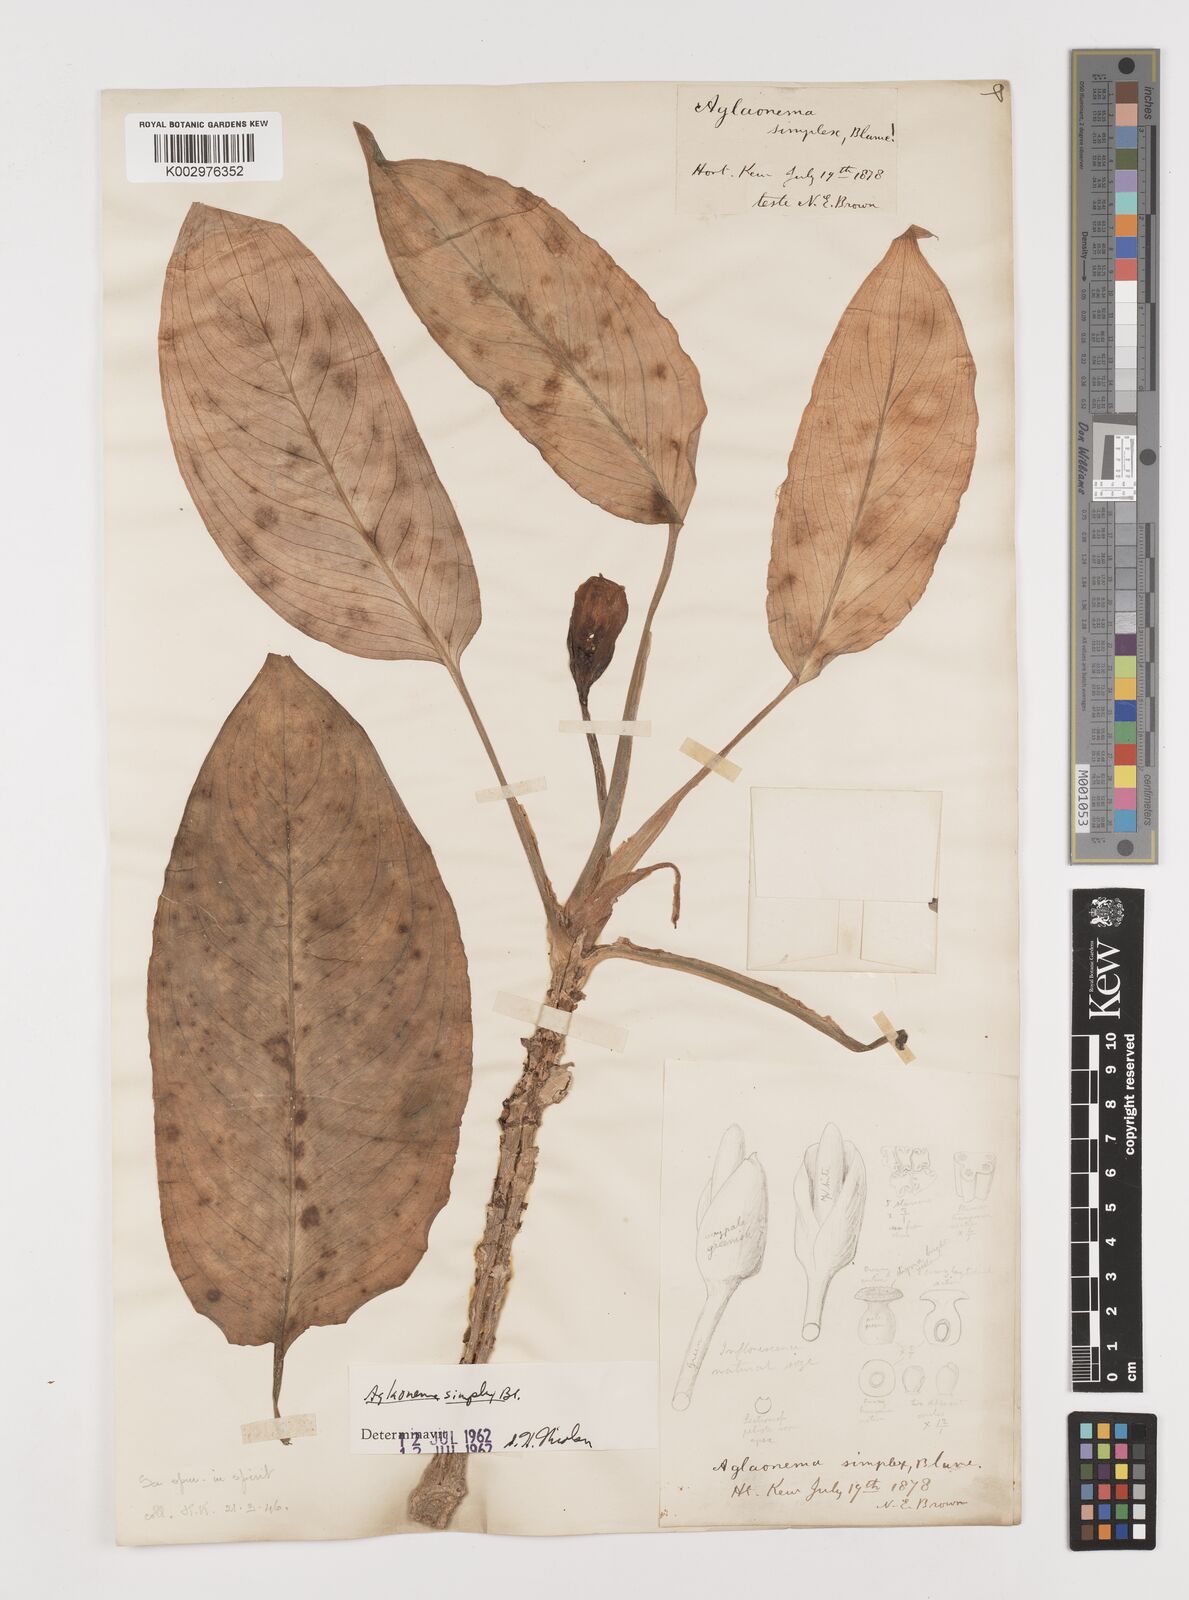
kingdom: Plantae
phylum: Tracheophyta
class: Liliopsida
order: Alismatales
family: Araceae
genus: Aglaonema
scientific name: Aglaonema simplex
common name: Malayan-sword
